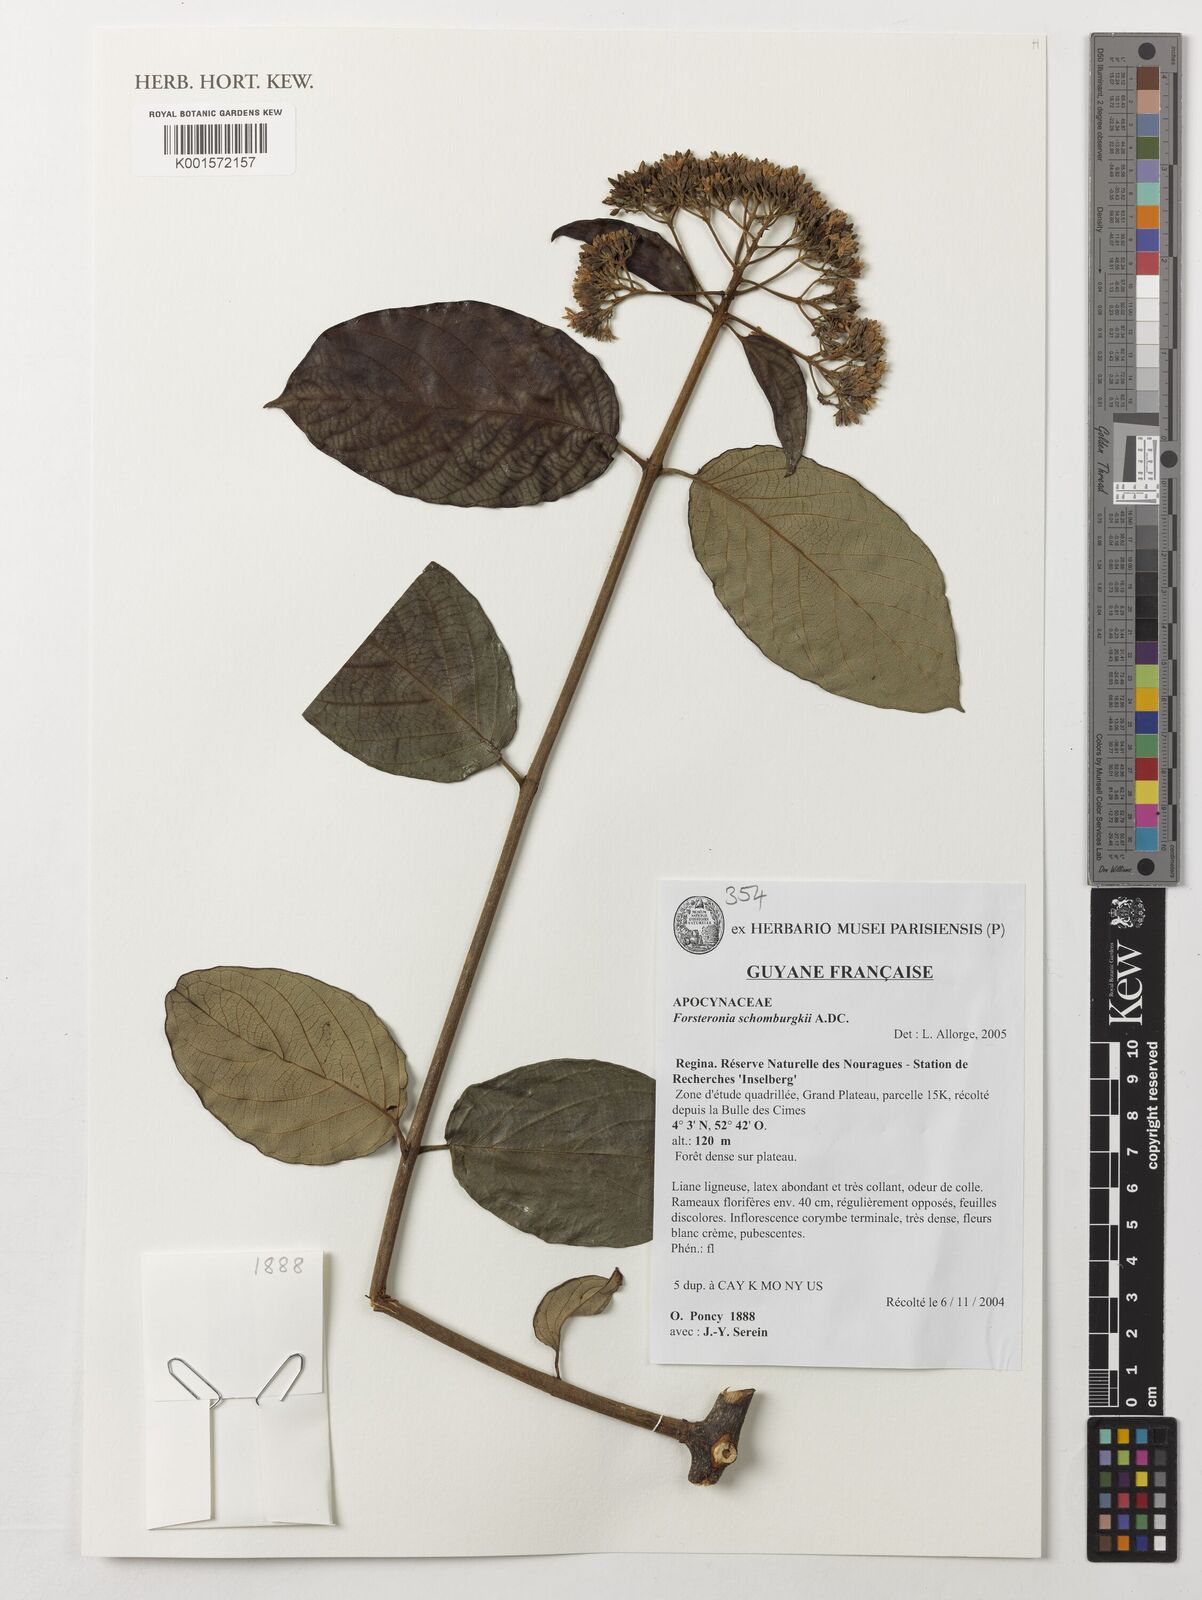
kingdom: Plantae
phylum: Tracheophyta
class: Magnoliopsida
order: Gentianales
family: Apocynaceae
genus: Forsteronia
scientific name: Forsteronia schomburgkii
